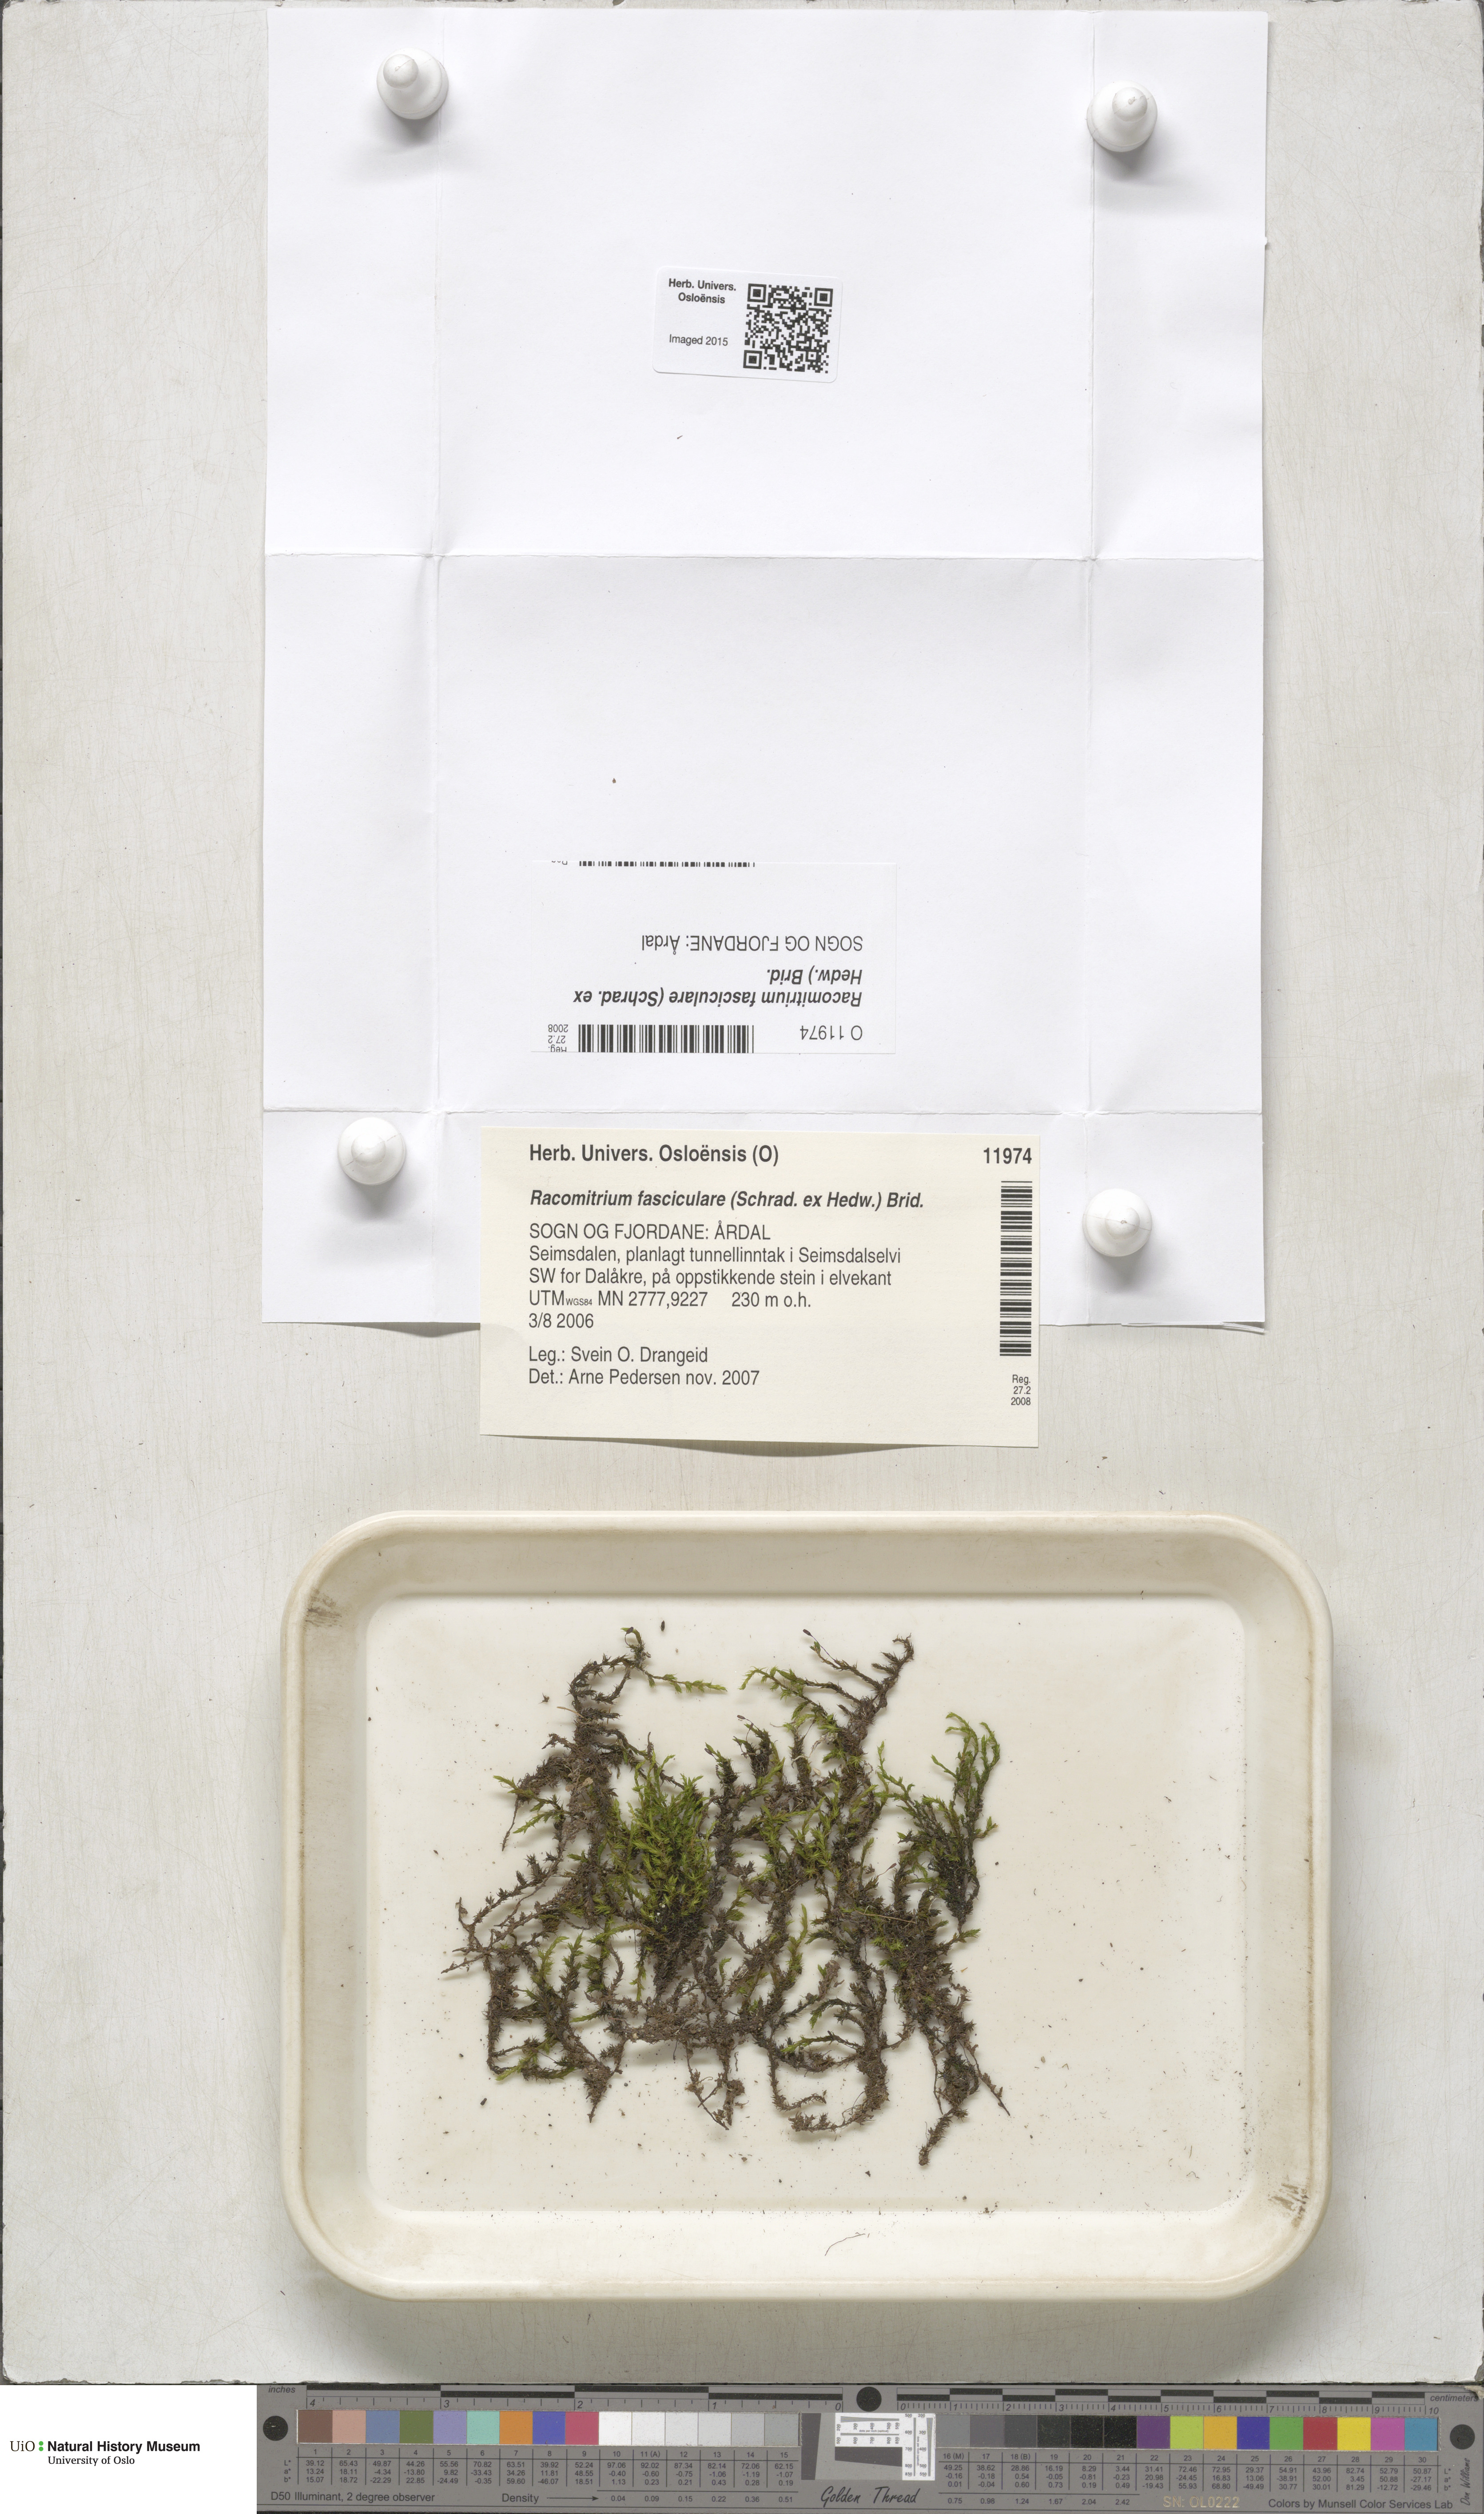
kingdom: Plantae
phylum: Bryophyta
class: Bryopsida
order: Grimmiales
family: Grimmiaceae
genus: Dilutineuron
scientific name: Dilutineuron fasciculare
